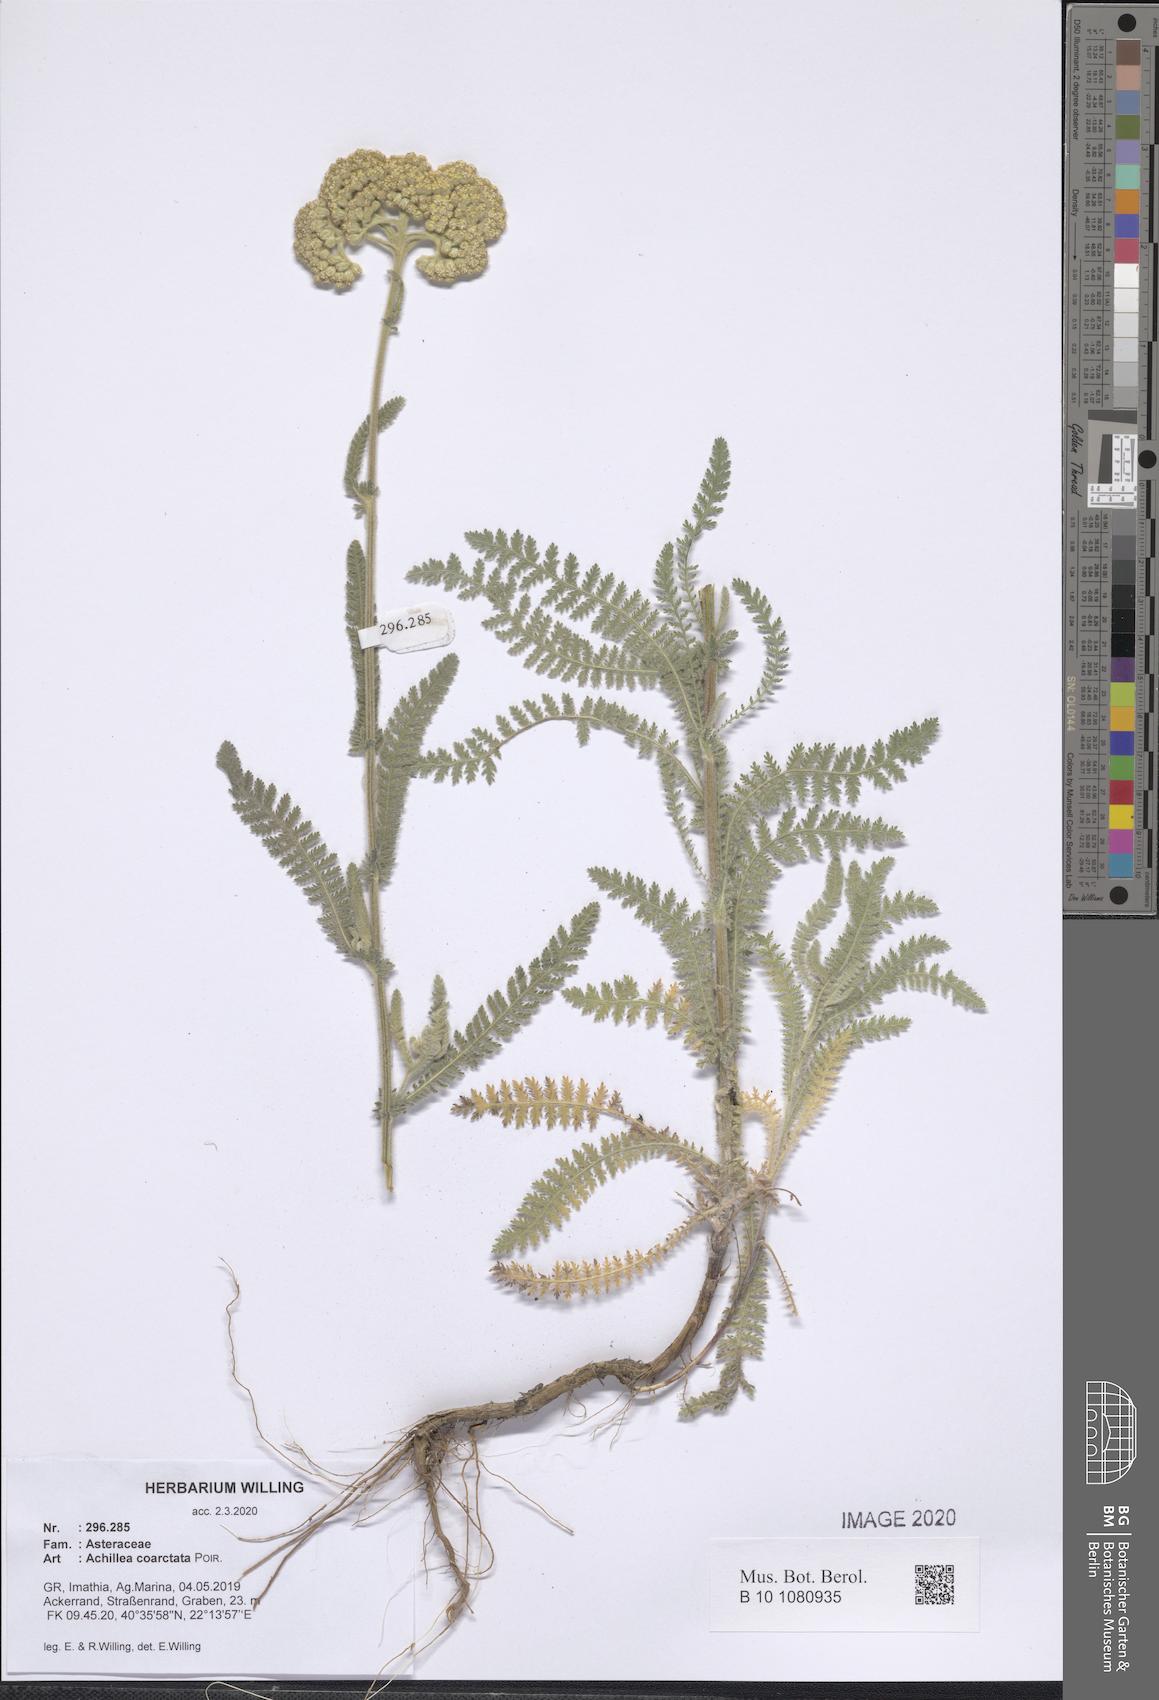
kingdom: Plantae
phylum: Tracheophyta
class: Magnoliopsida
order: Asterales
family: Asteraceae
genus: Achillea
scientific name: Achillea coarctata
